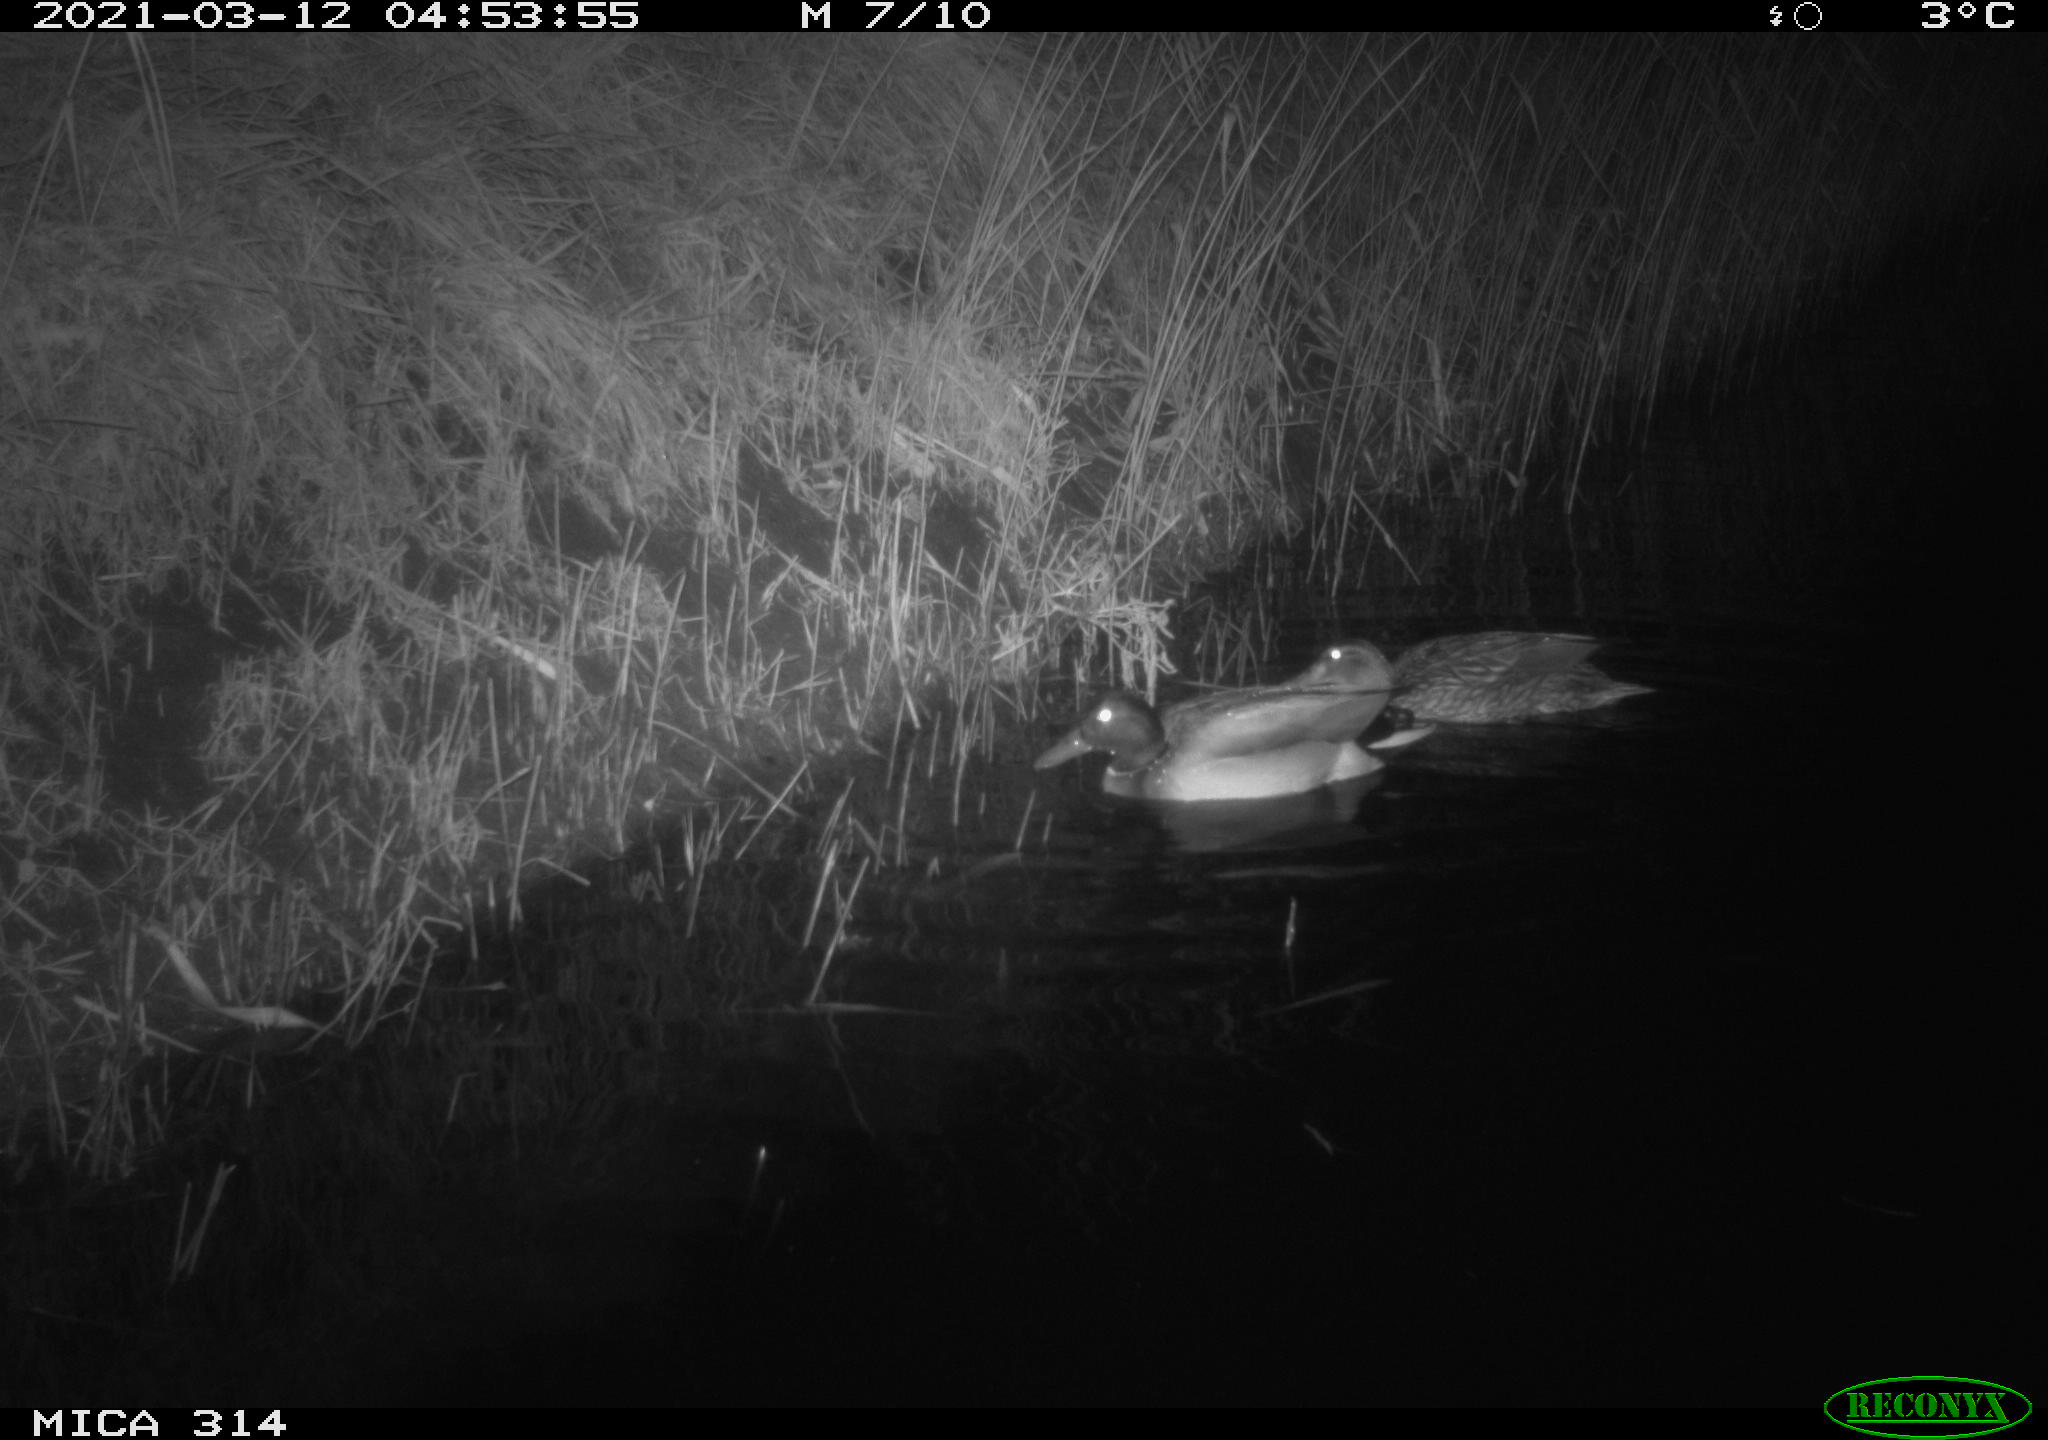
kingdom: Animalia
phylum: Chordata
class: Aves
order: Anseriformes
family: Anatidae
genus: Anas
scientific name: Anas platyrhynchos
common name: Mallard
